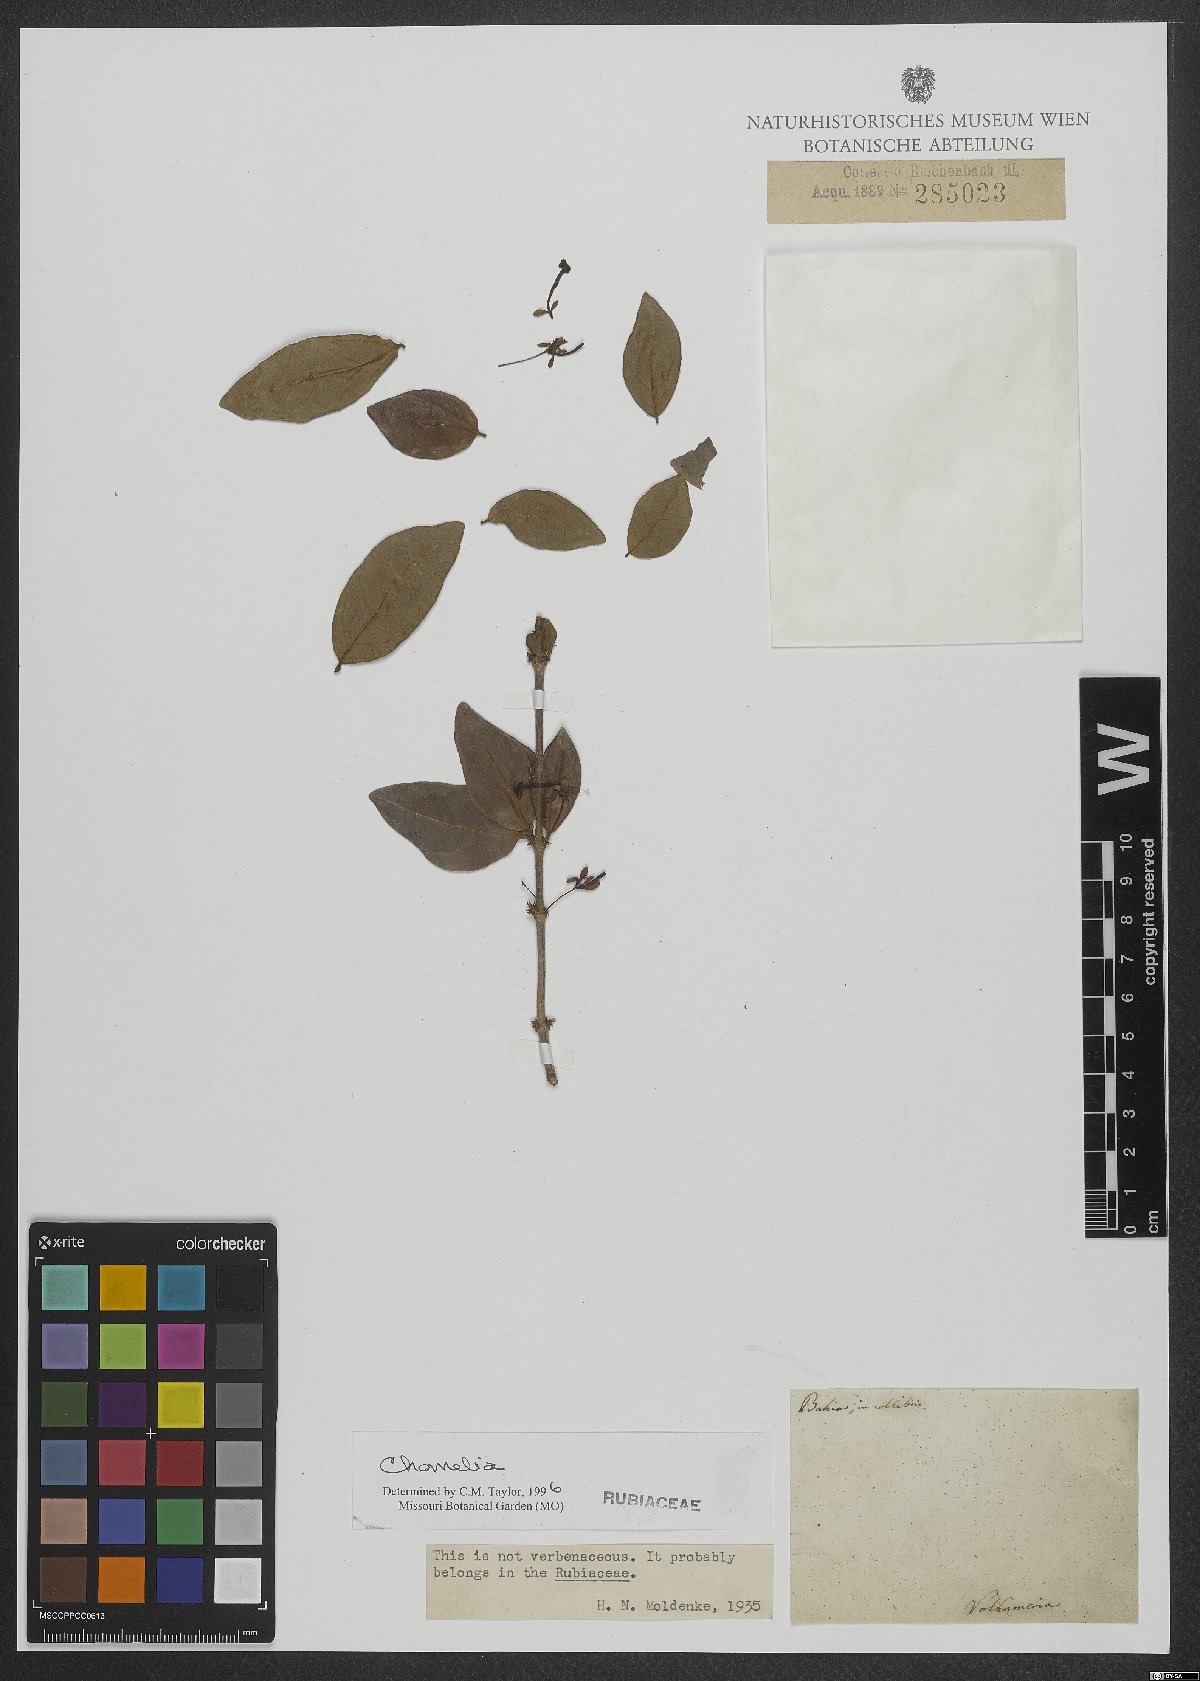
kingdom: Plantae
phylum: Tracheophyta
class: Magnoliopsida
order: Gentianales
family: Rubiaceae
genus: Chomelia
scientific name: Chomelia
